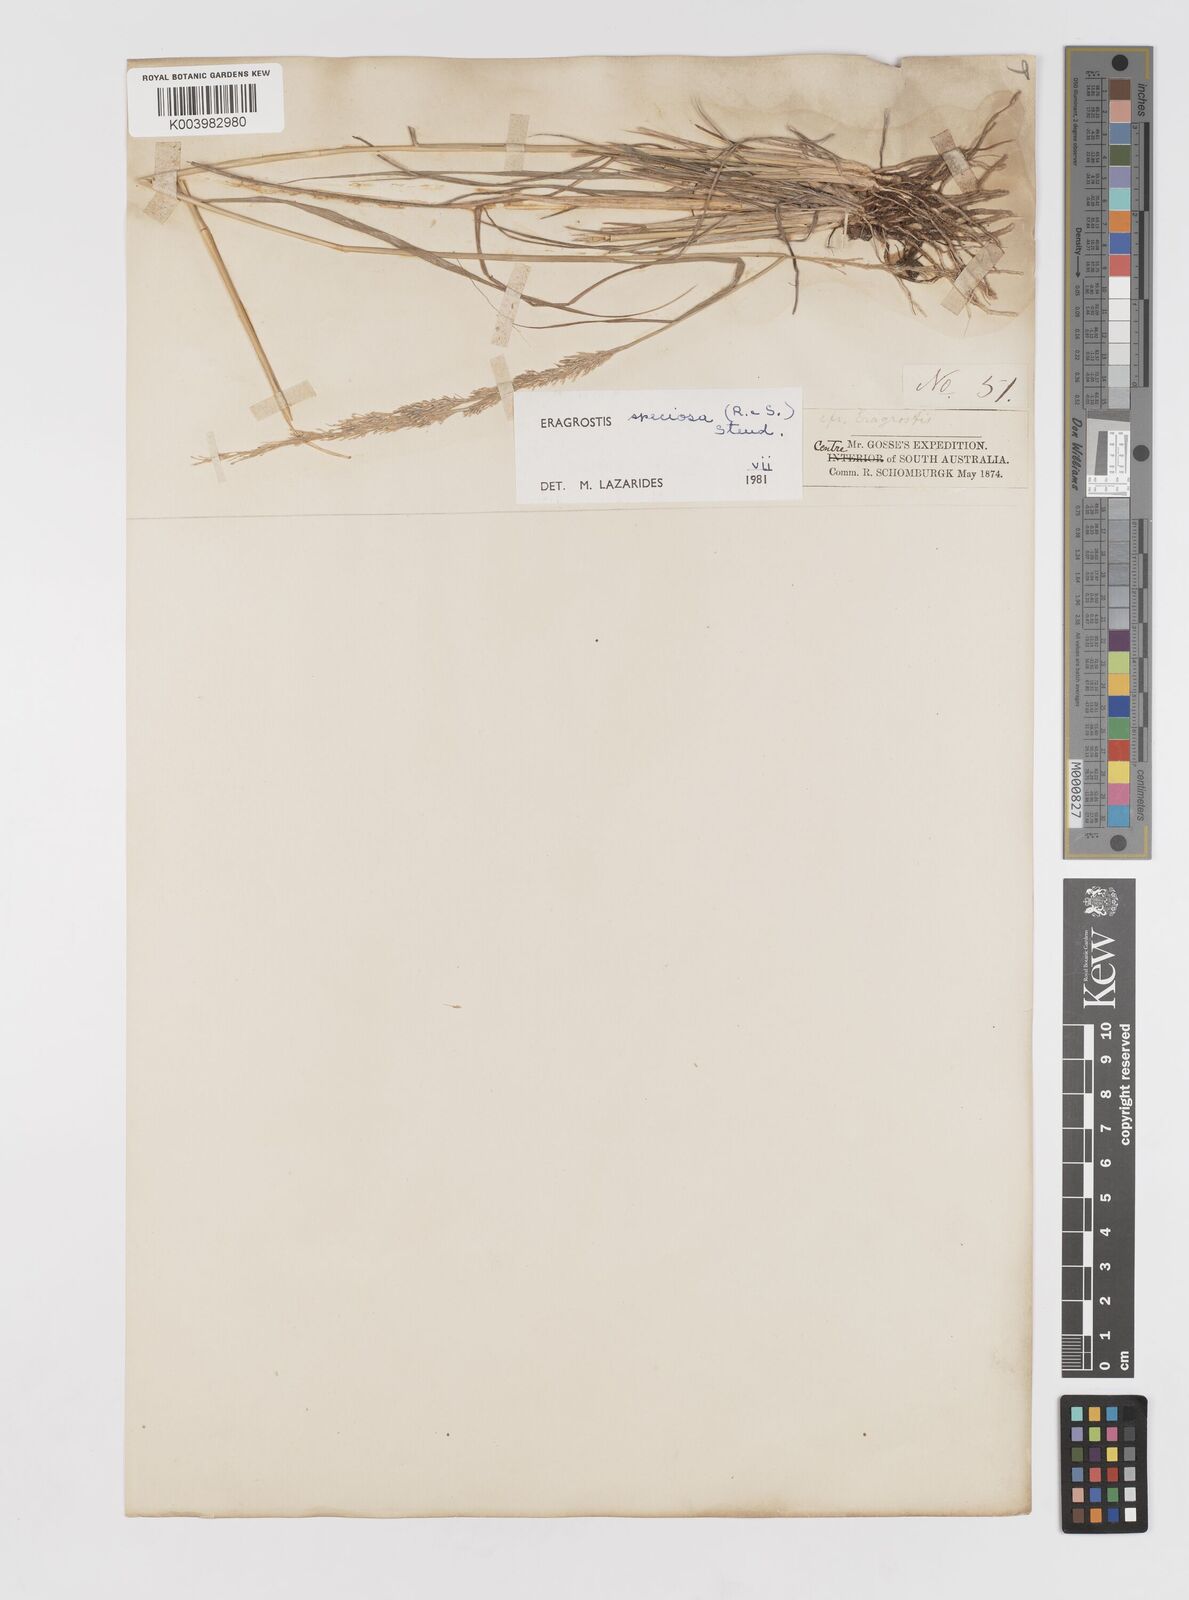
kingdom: Plantae
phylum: Tracheophyta
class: Liliopsida
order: Poales
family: Poaceae
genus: Eragrostis
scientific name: Eragrostis speciosa
